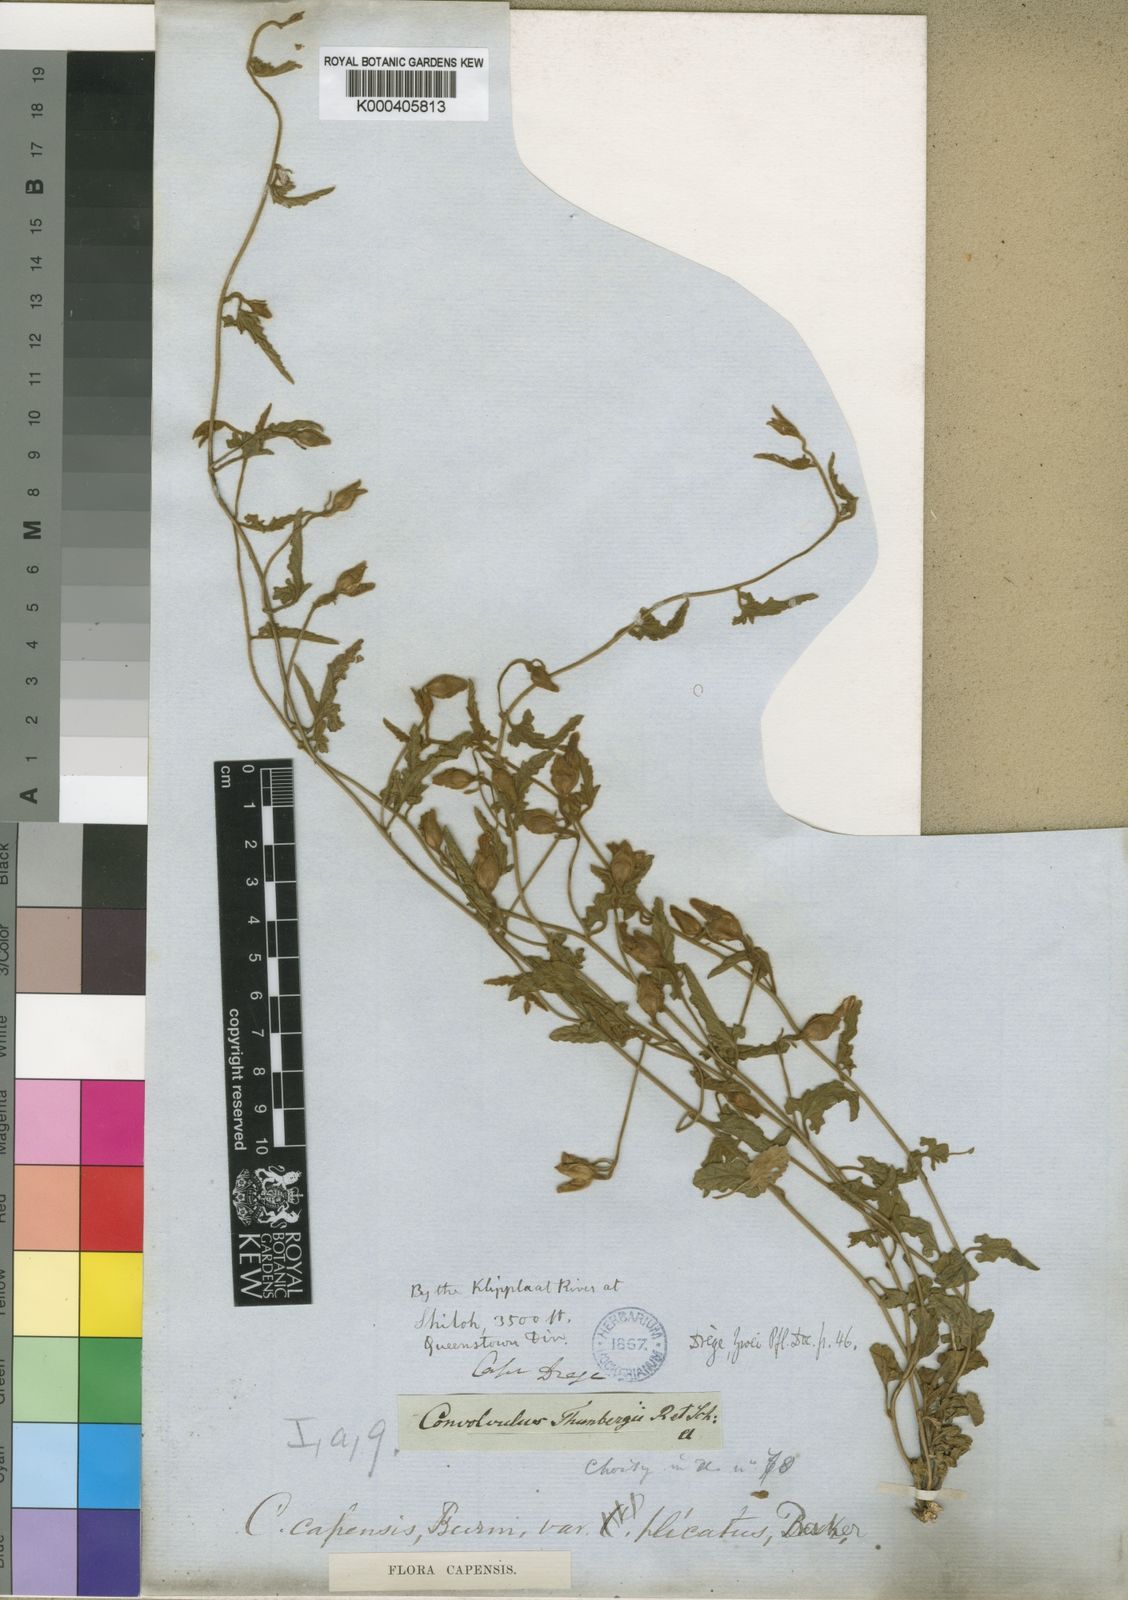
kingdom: Plantae
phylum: Tracheophyta
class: Magnoliopsida
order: Solanales
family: Convolvulaceae
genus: Convolvulus
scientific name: Convolvulus thunbergii
